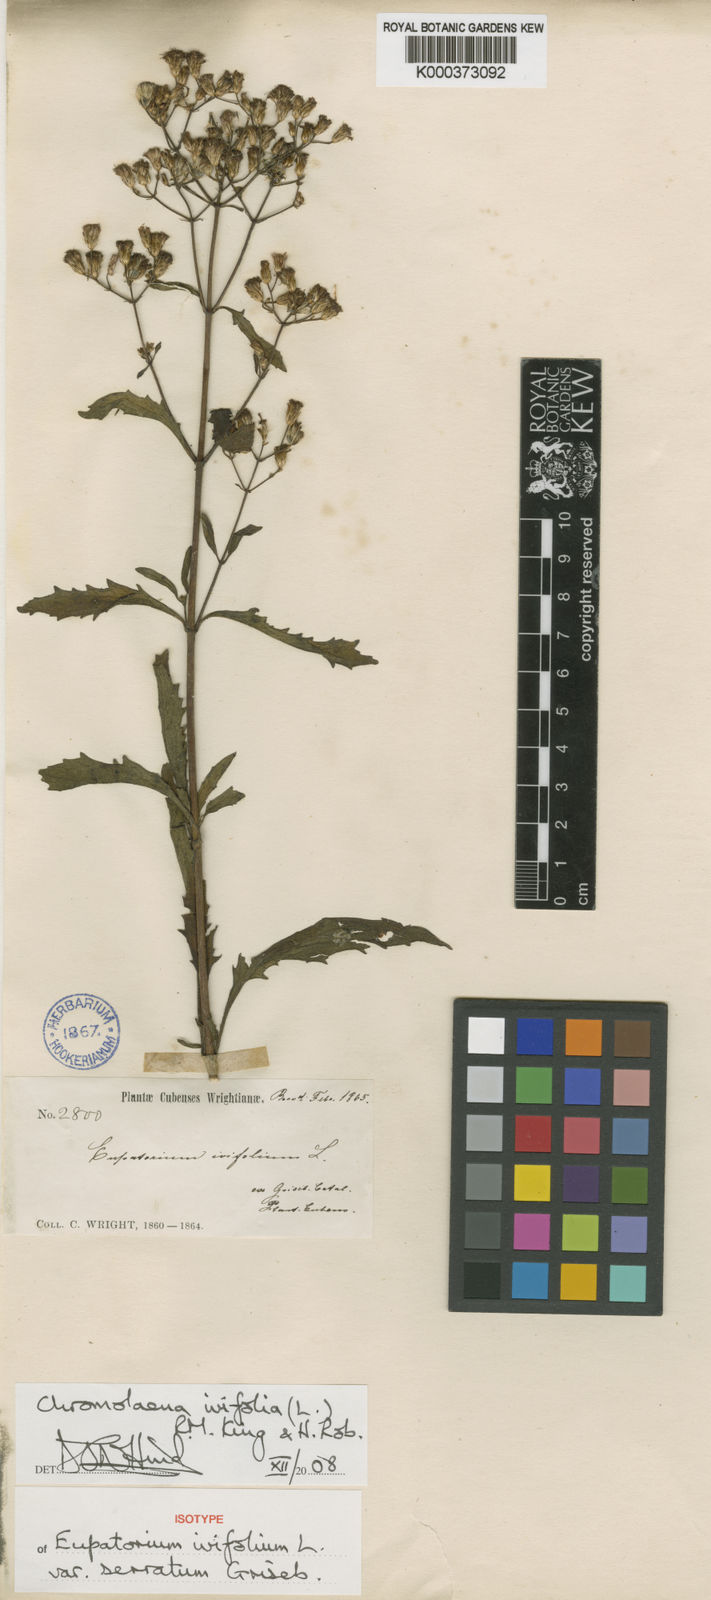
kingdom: Plantae
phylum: Tracheophyta
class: Magnoliopsida
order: Asterales
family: Asteraceae
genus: Chromolaena
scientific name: Chromolaena ivifolia
